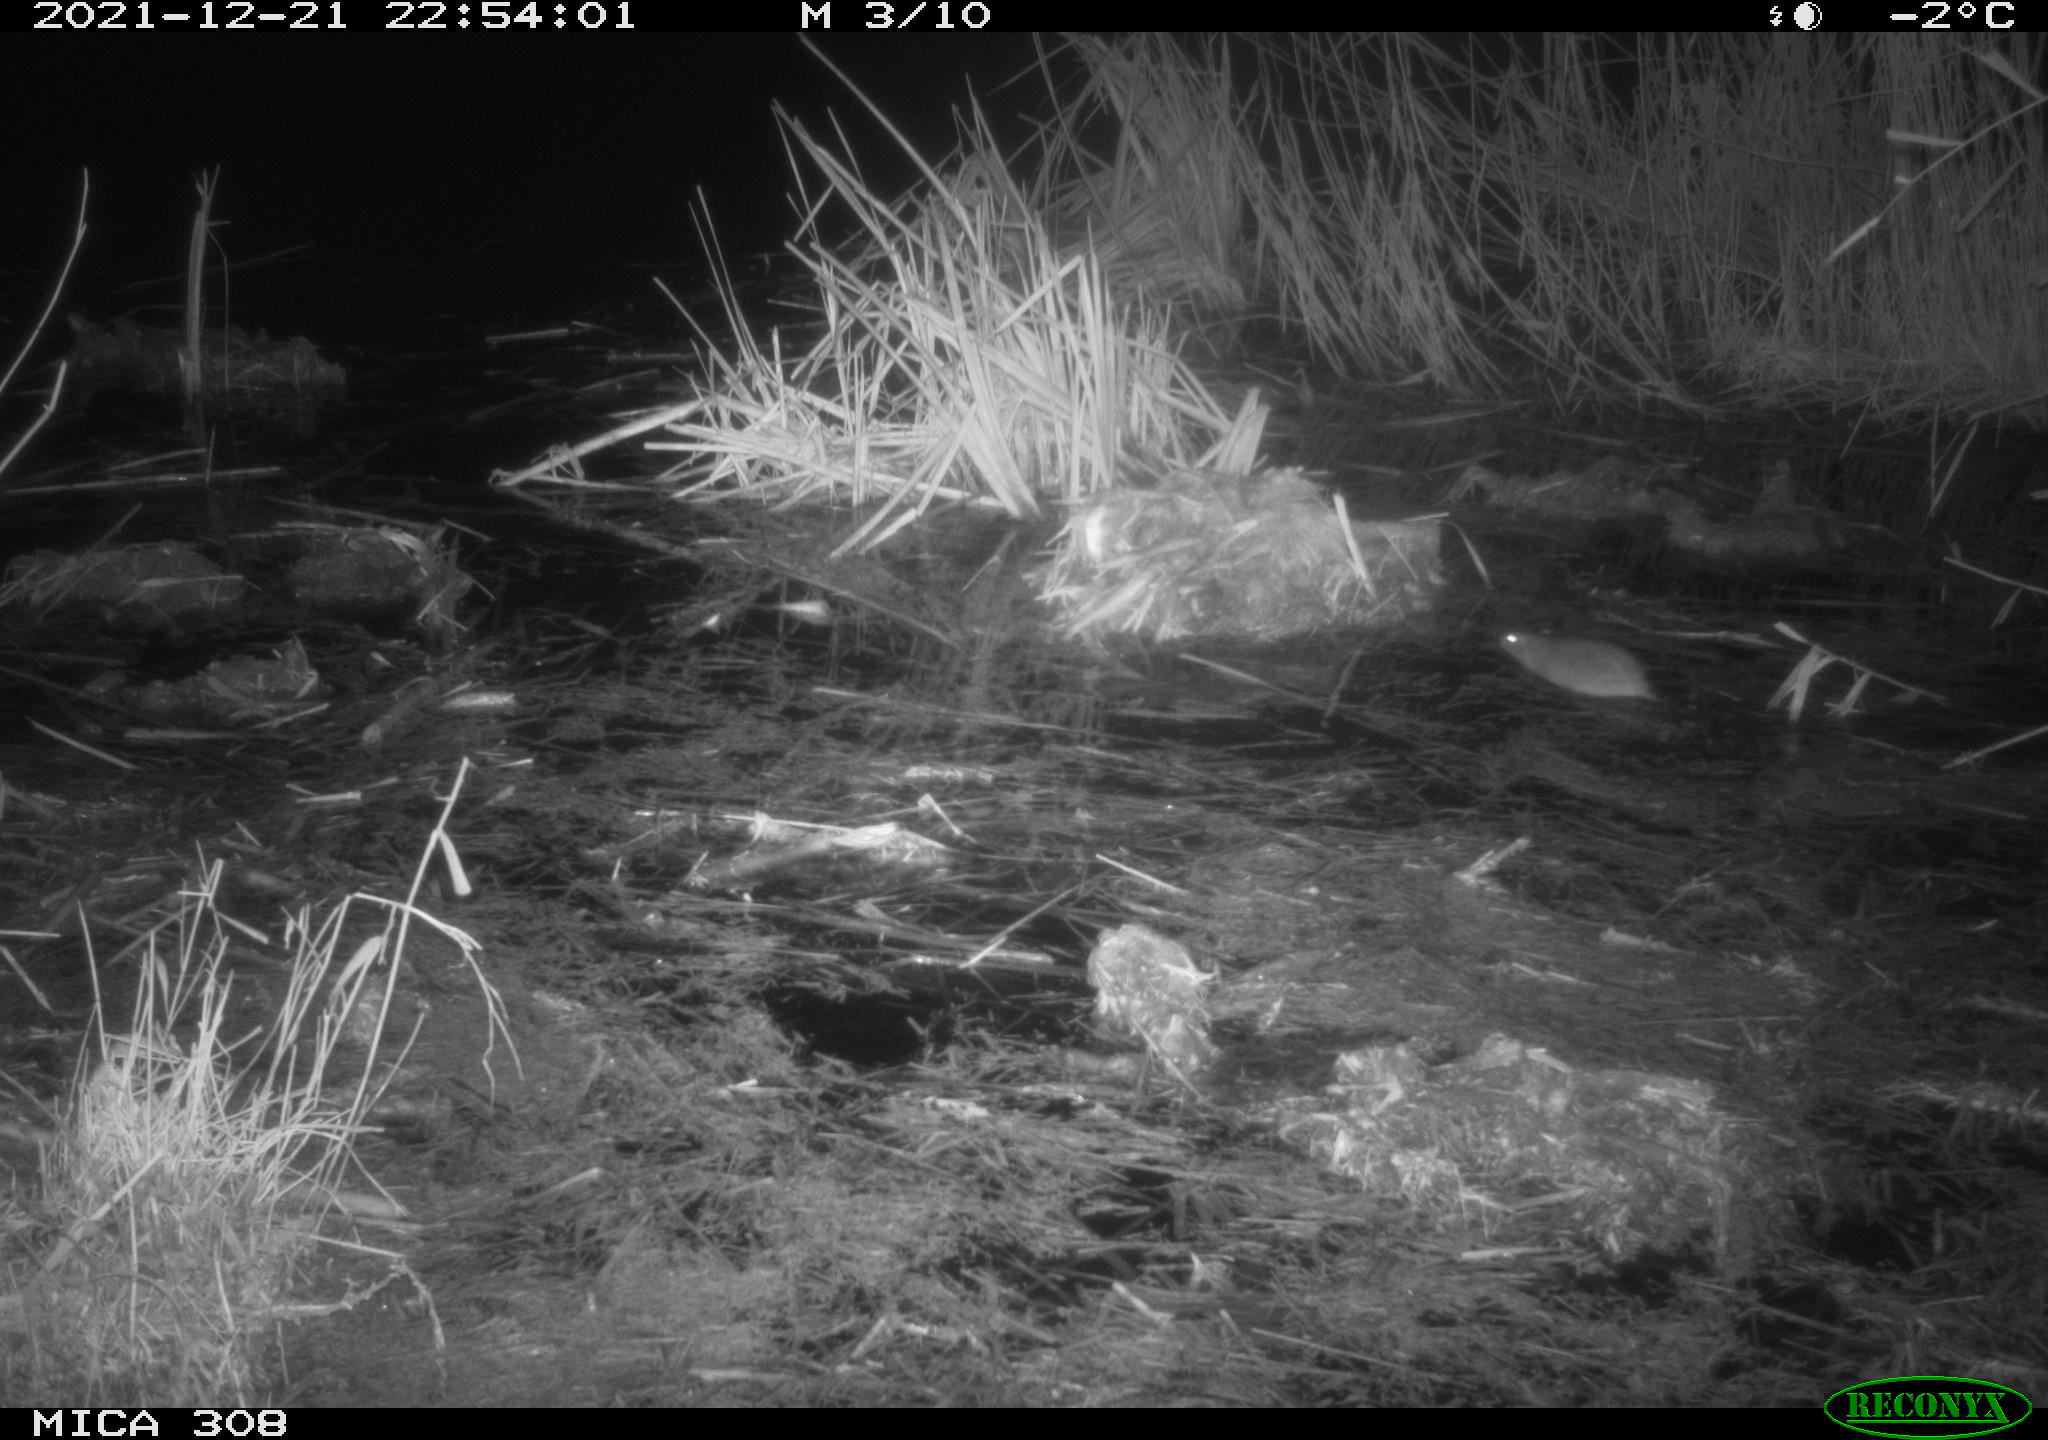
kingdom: Animalia
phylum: Chordata
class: Mammalia
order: Rodentia
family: Muridae
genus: Rattus
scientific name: Rattus norvegicus
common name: Brown rat
